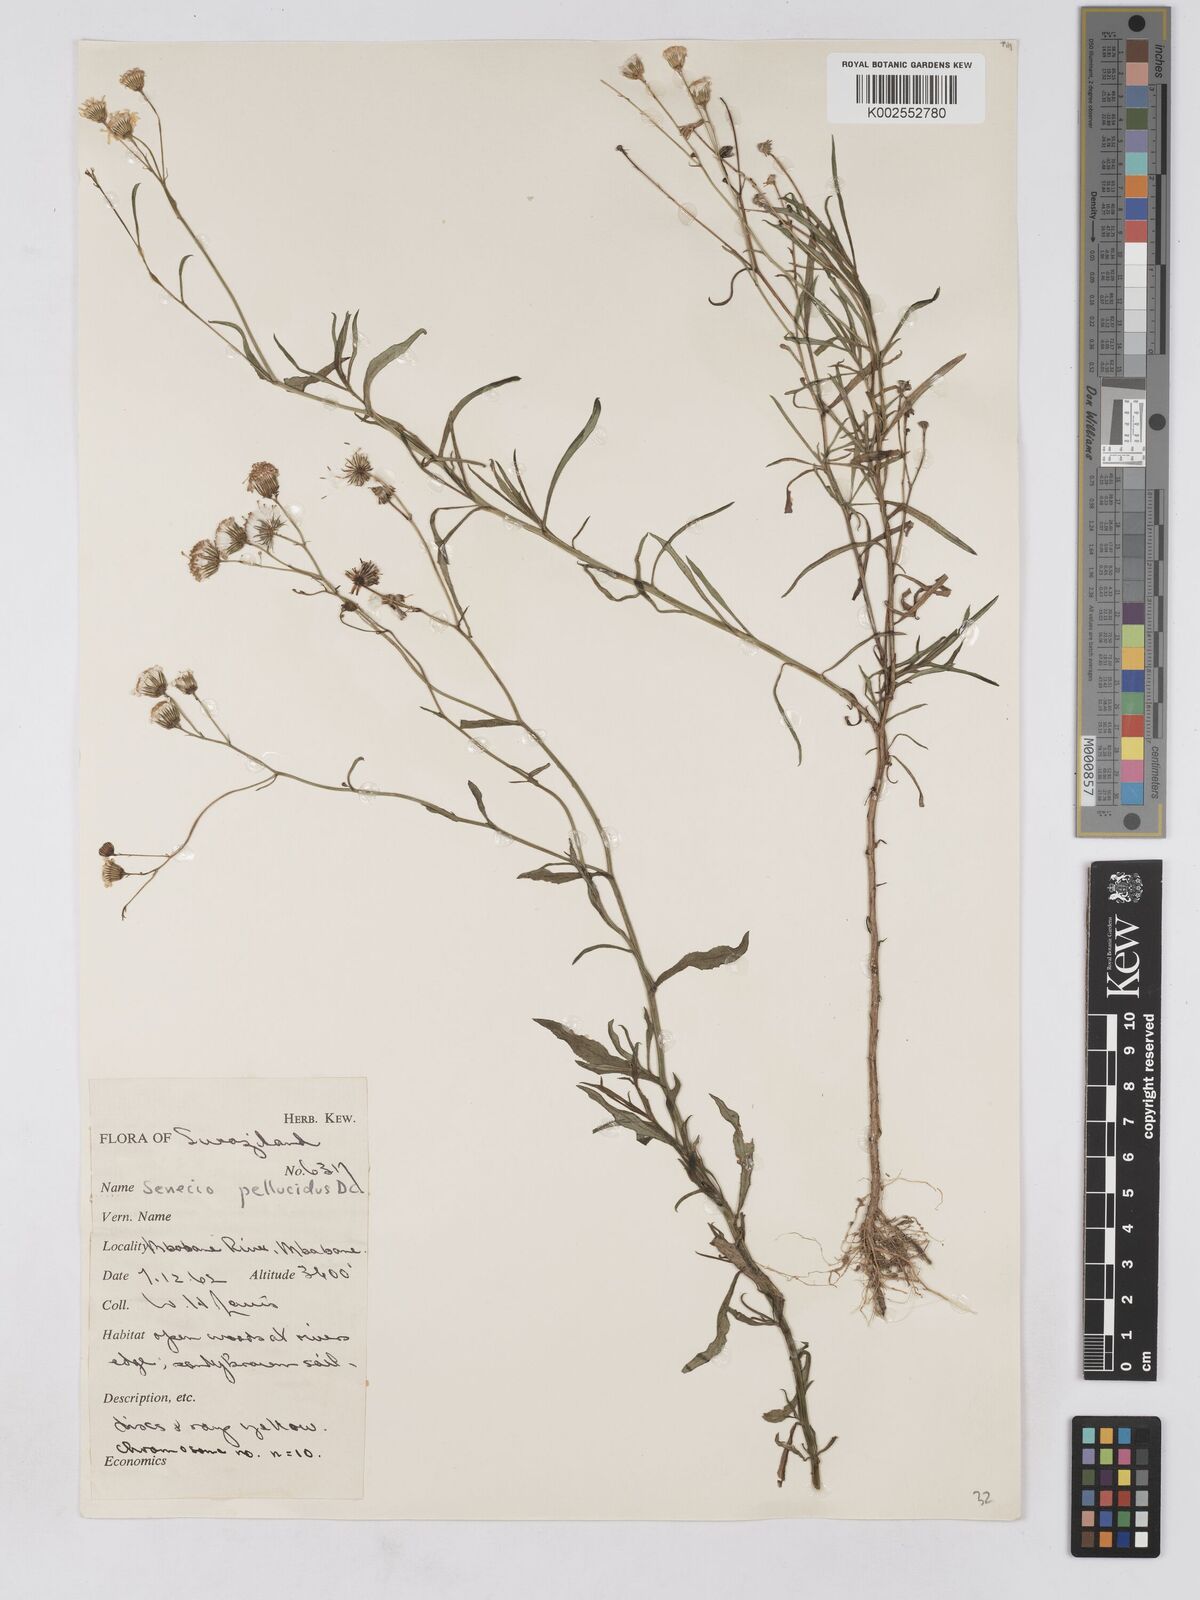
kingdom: Plantae
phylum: Tracheophyta
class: Magnoliopsida
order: Asterales
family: Asteraceae
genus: Senecio
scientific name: Senecio madagascariensis
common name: Madagascar ragwort
